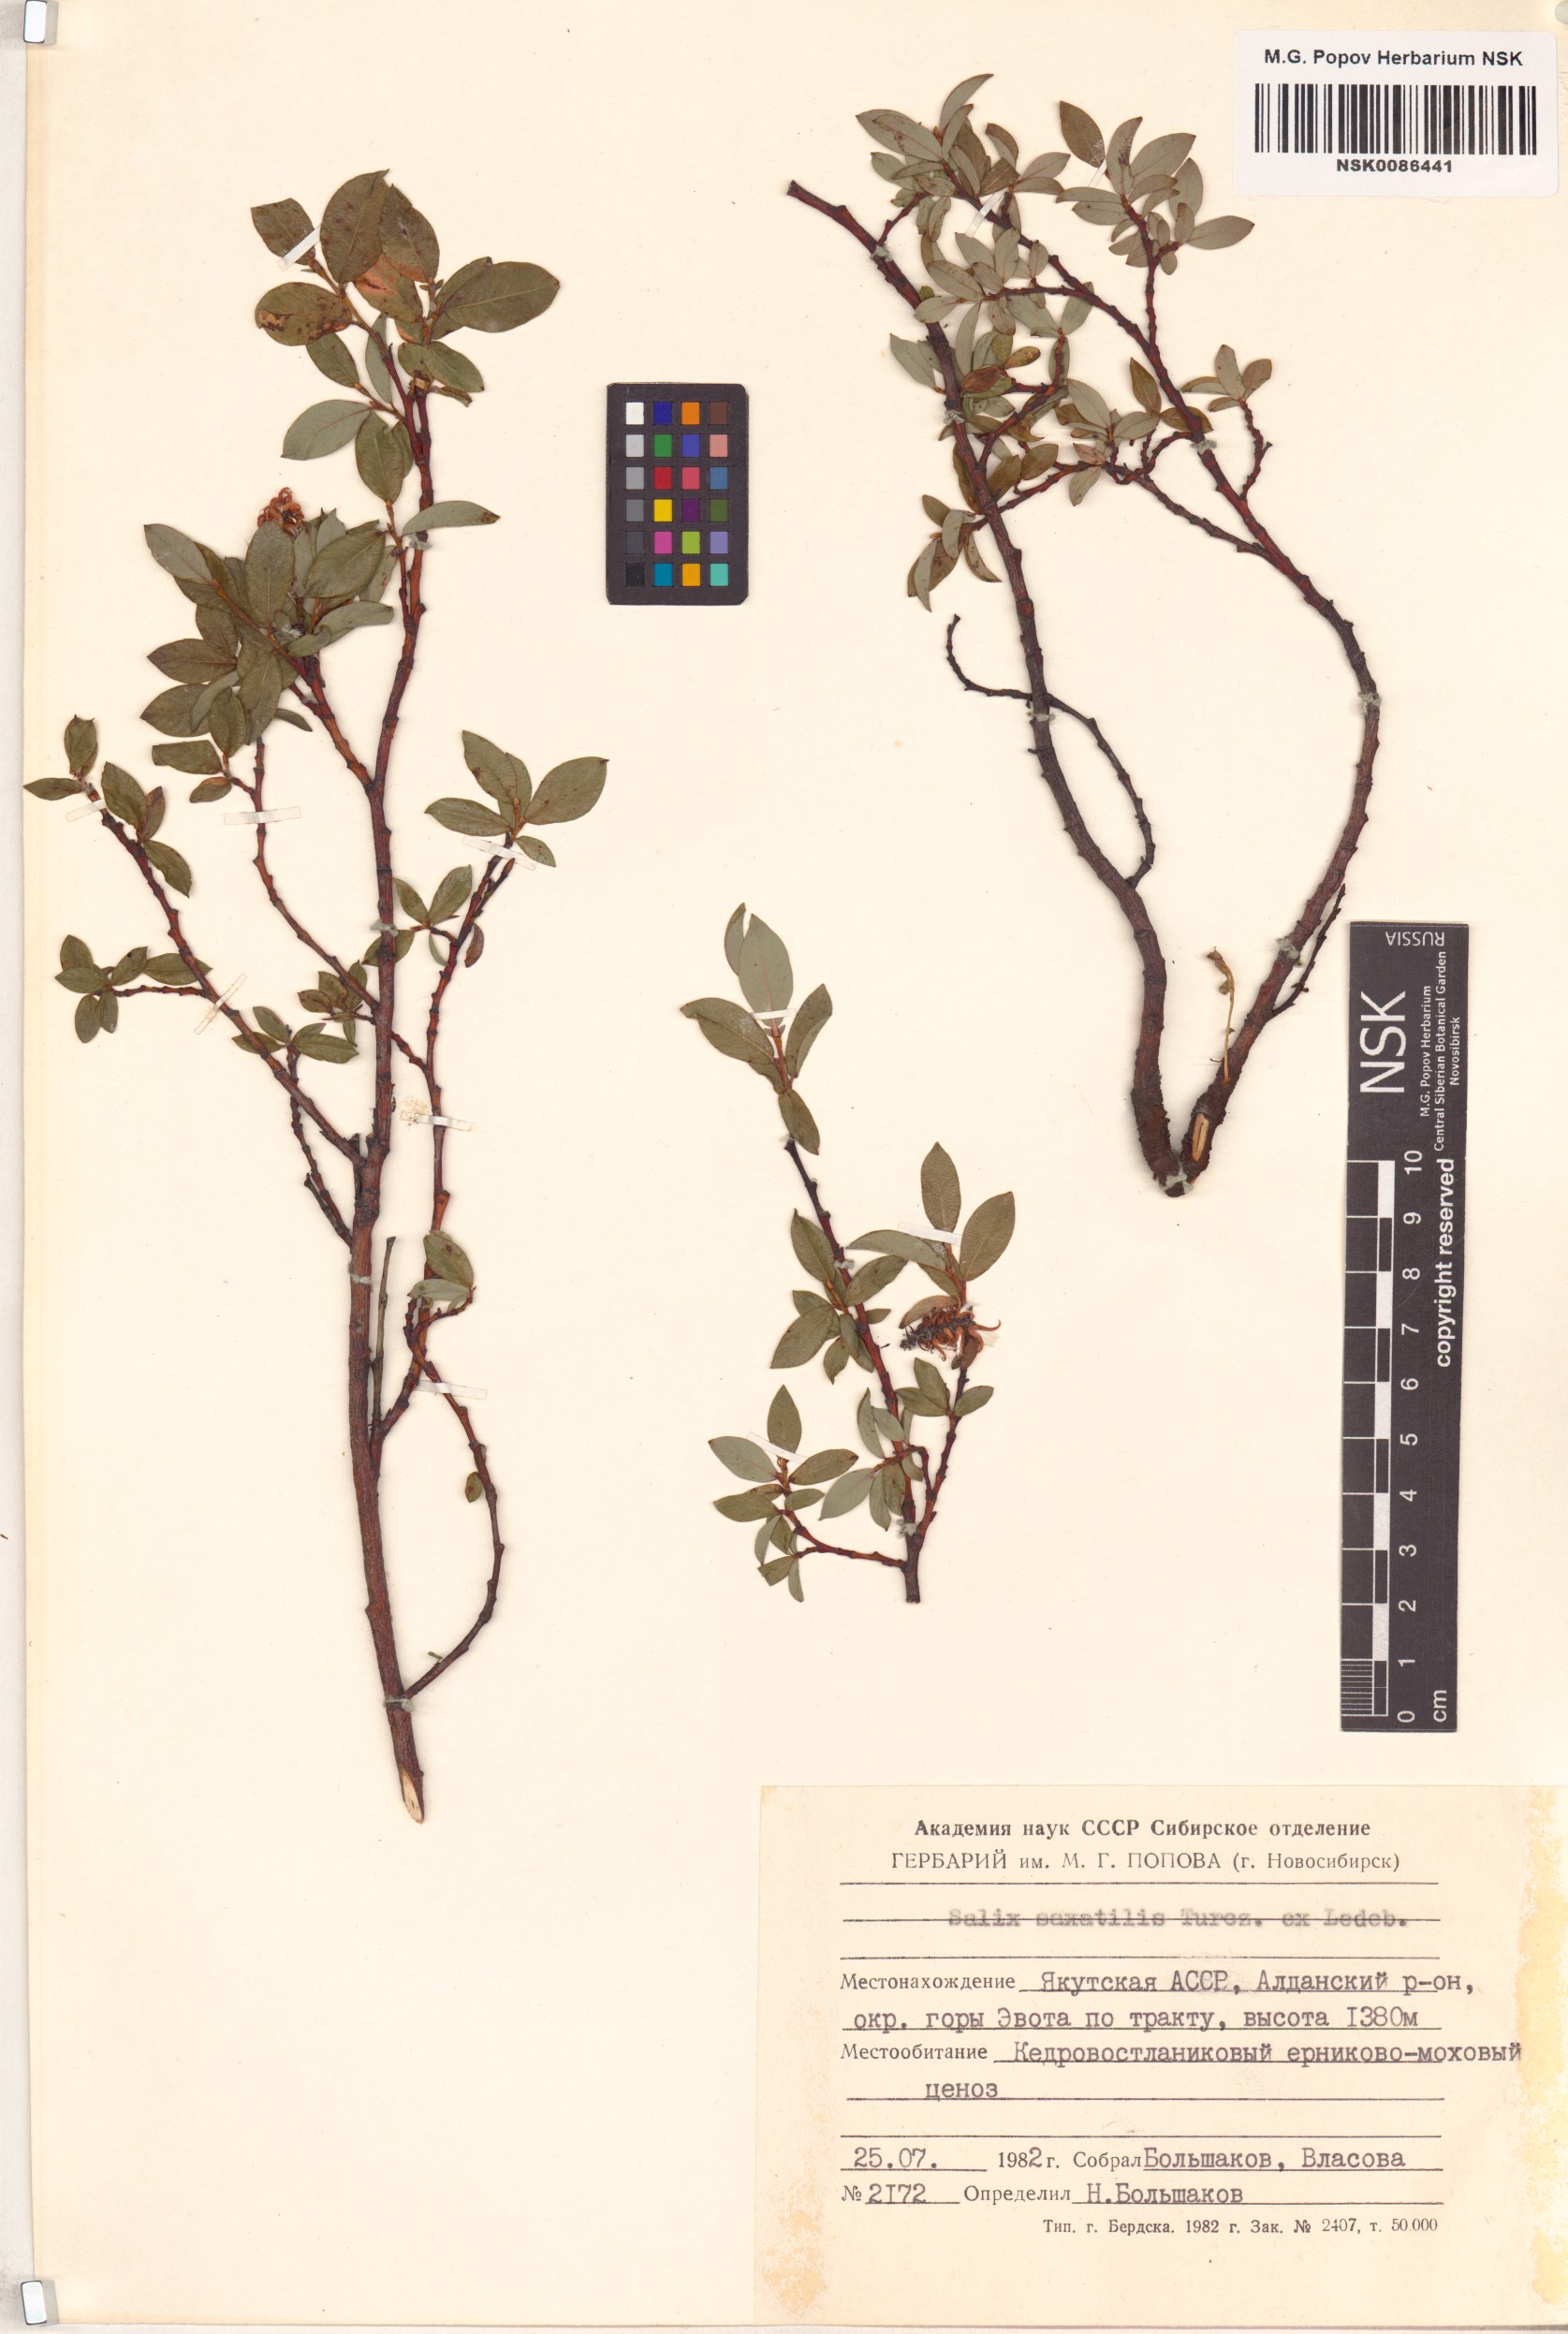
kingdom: Plantae
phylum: Tracheophyta
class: Magnoliopsida
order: Malpighiales
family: Salicaceae
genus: Salix
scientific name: Salix saxatilis
